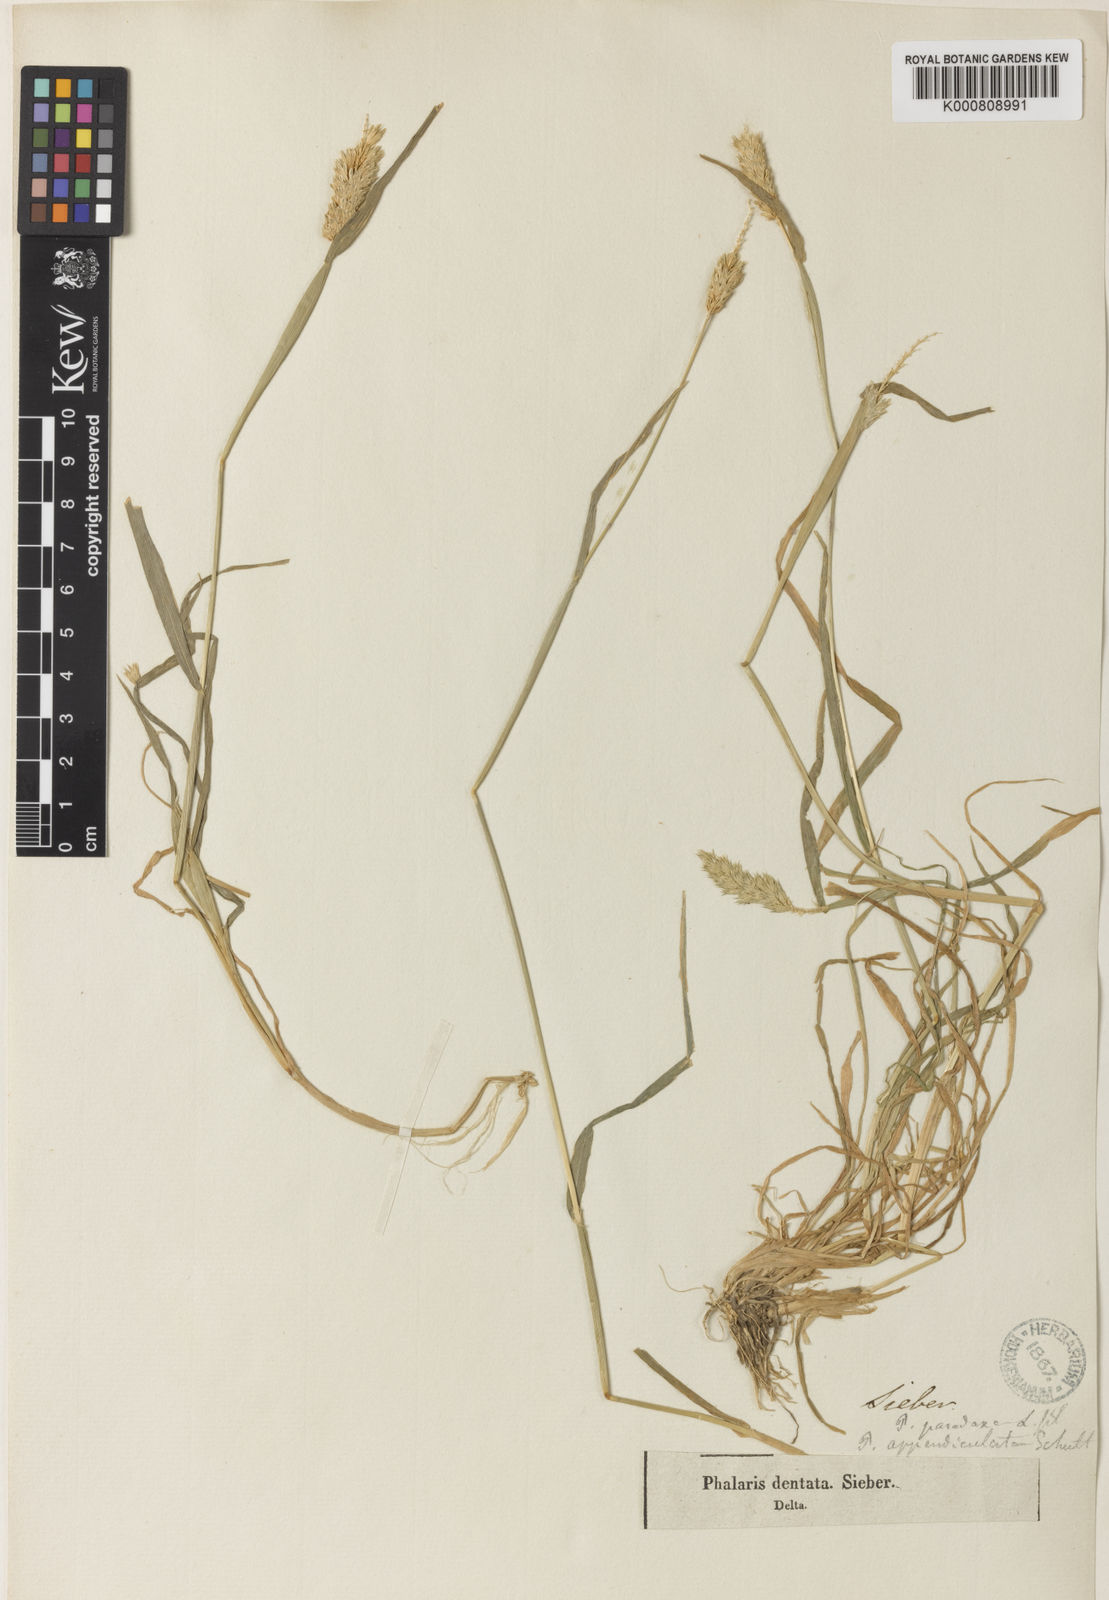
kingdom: Plantae
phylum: Tracheophyta
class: Liliopsida
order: Poales
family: Poaceae
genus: Phalaris
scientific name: Phalaris paradoxa
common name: Awned canary-grass
